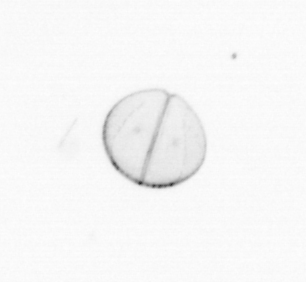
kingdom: Chromista
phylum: Ochrophyta
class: Bacillariophyceae
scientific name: Bacillariophyceae
